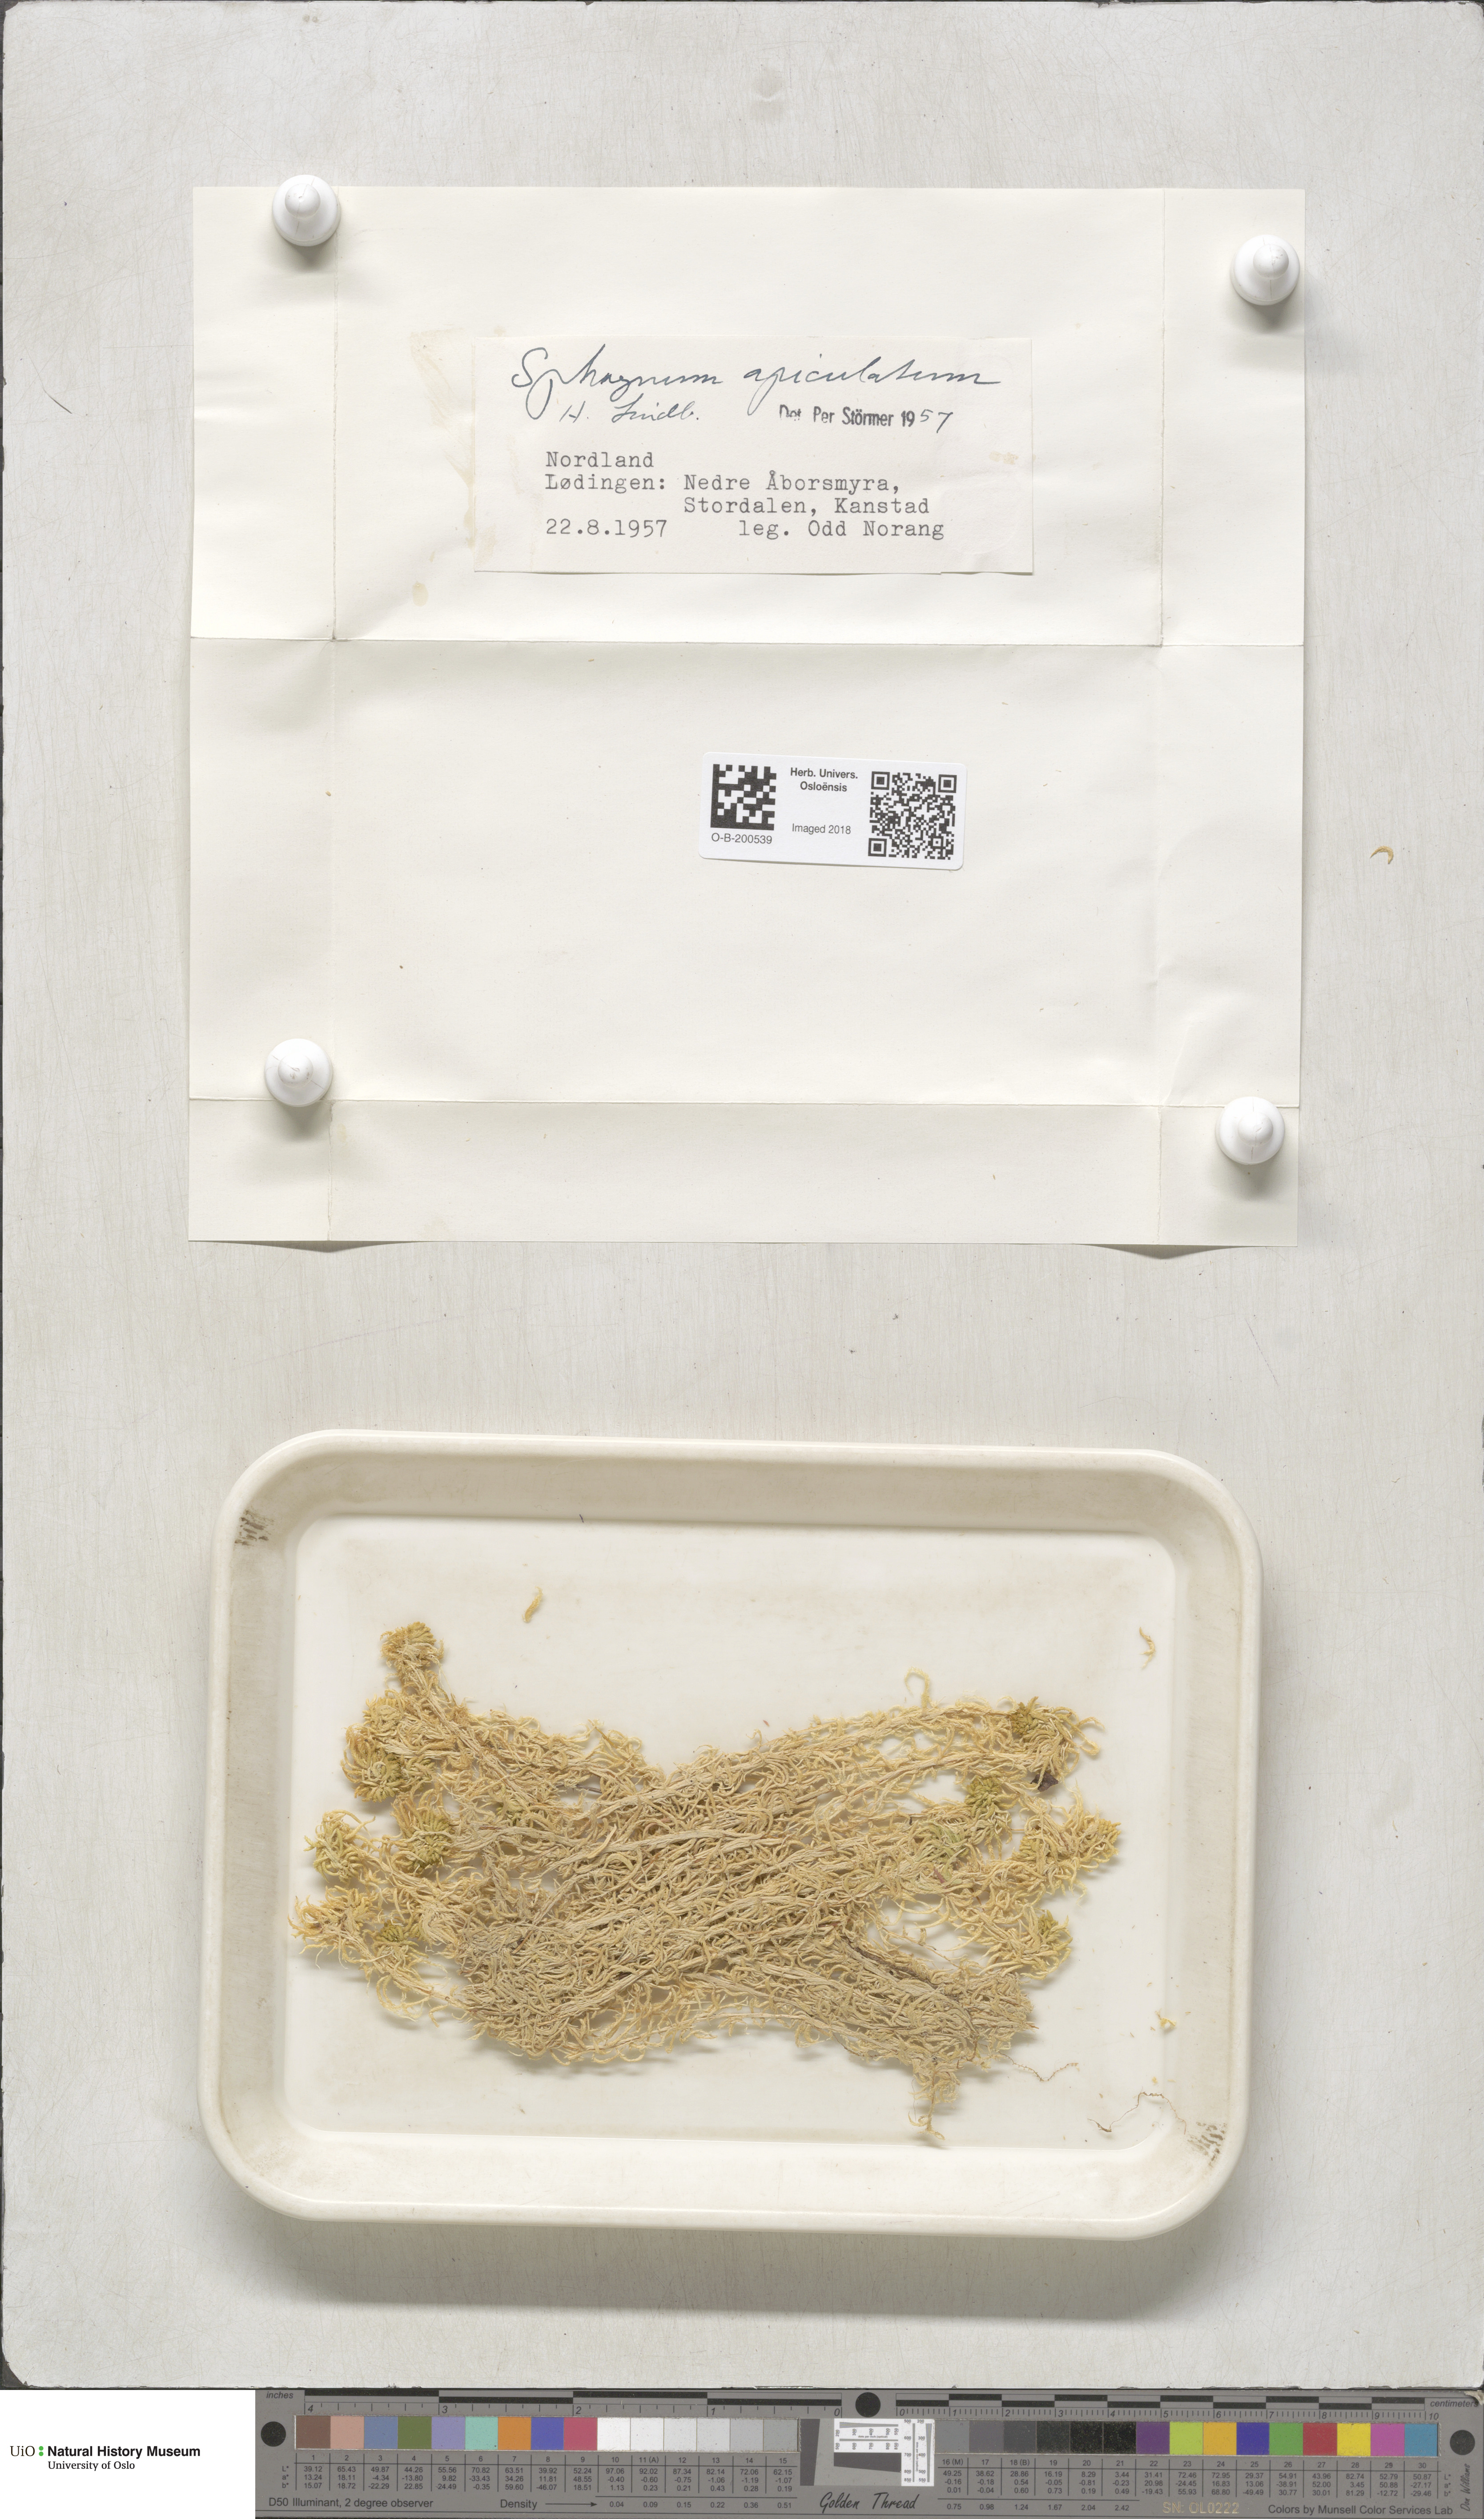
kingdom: Plantae
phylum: Bryophyta
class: Sphagnopsida
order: Sphagnales
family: Sphagnaceae
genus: Sphagnum
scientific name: Sphagnum fallax
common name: Flat-top peat moss
